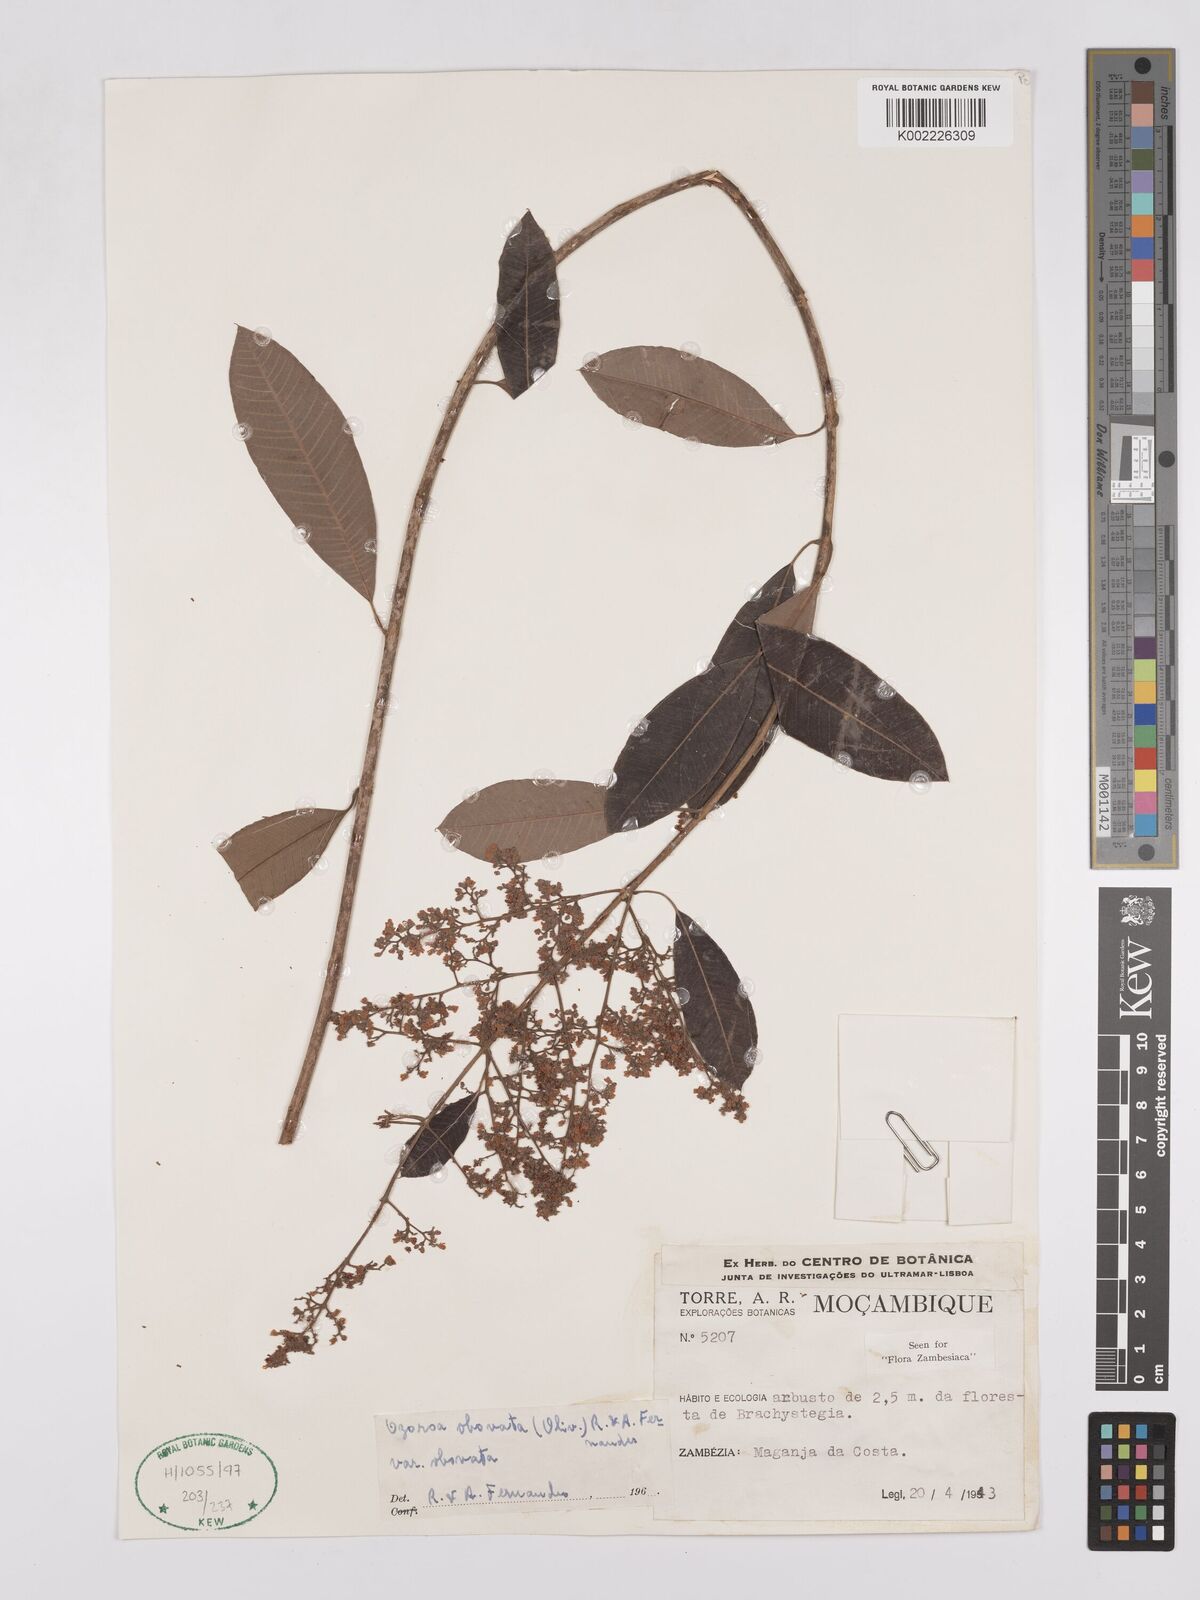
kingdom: Plantae
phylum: Tracheophyta
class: Magnoliopsida
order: Sapindales
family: Anacardiaceae
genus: Ozoroa
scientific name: Ozoroa obovata
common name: Broad-leaved resin tree
